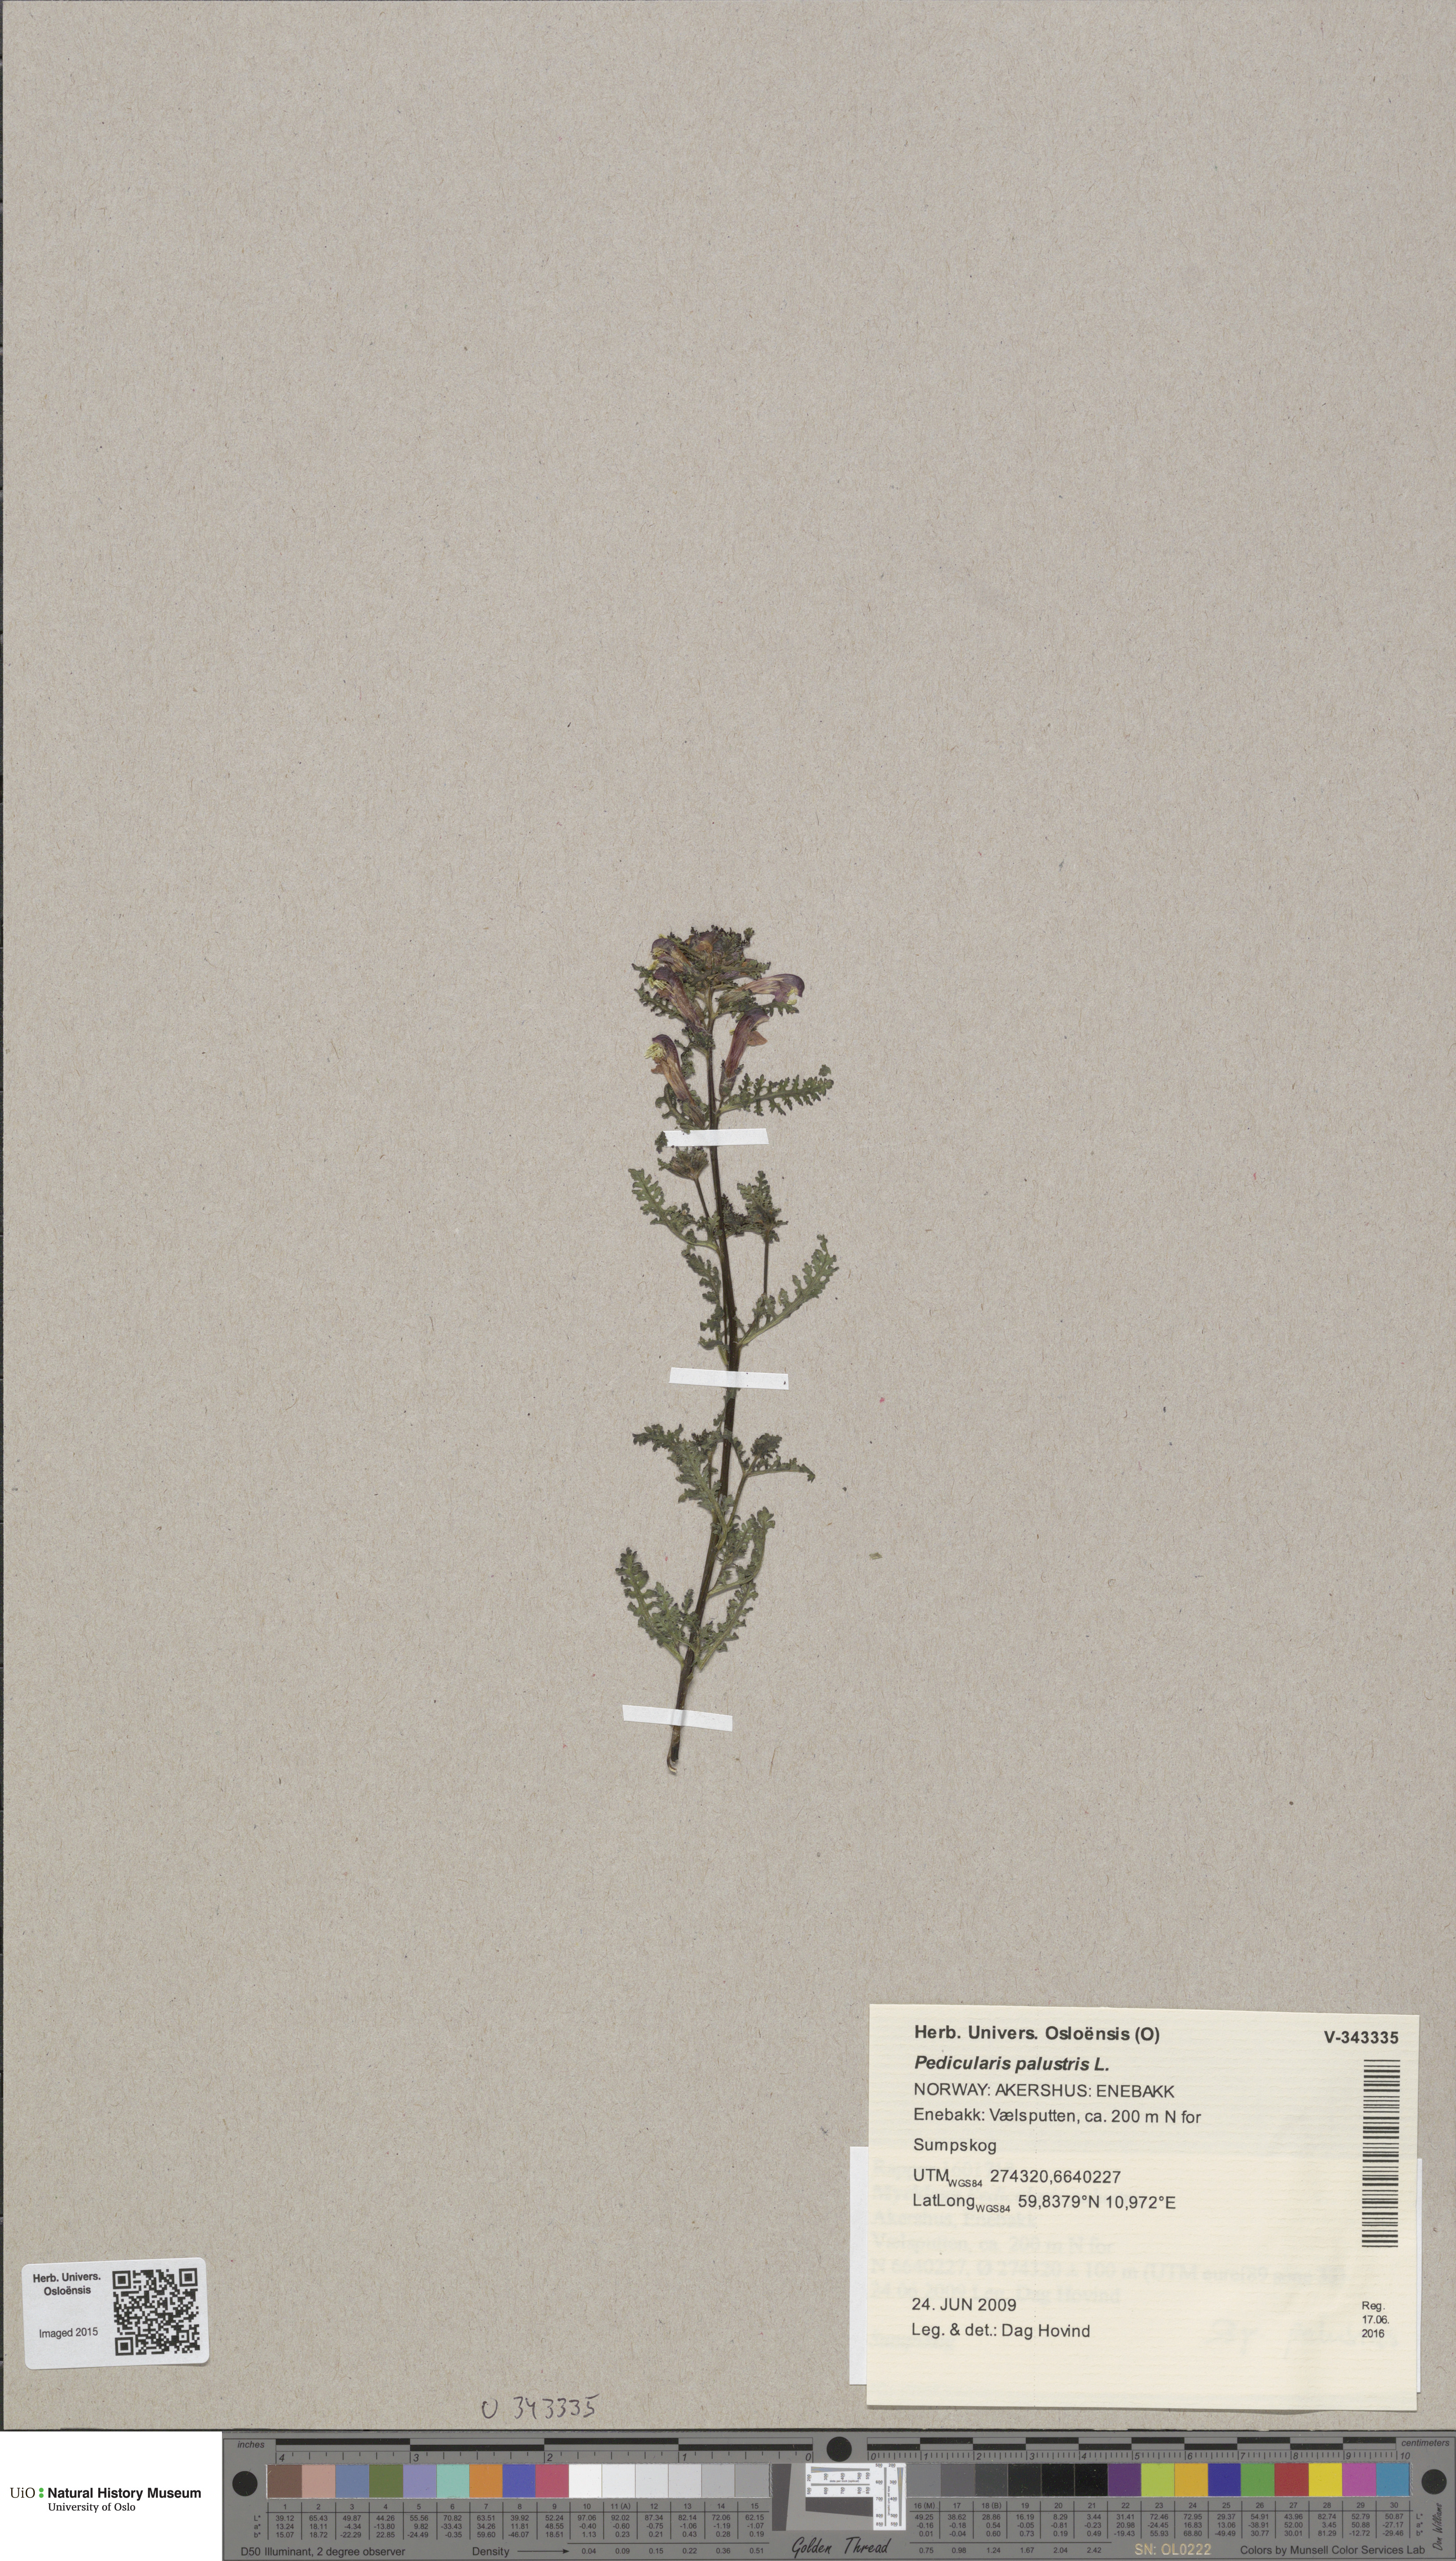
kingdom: Plantae
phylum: Tracheophyta
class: Magnoliopsida
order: Lamiales
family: Orobanchaceae
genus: Pedicularis
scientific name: Pedicularis palustris
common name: Marsh lousewort
